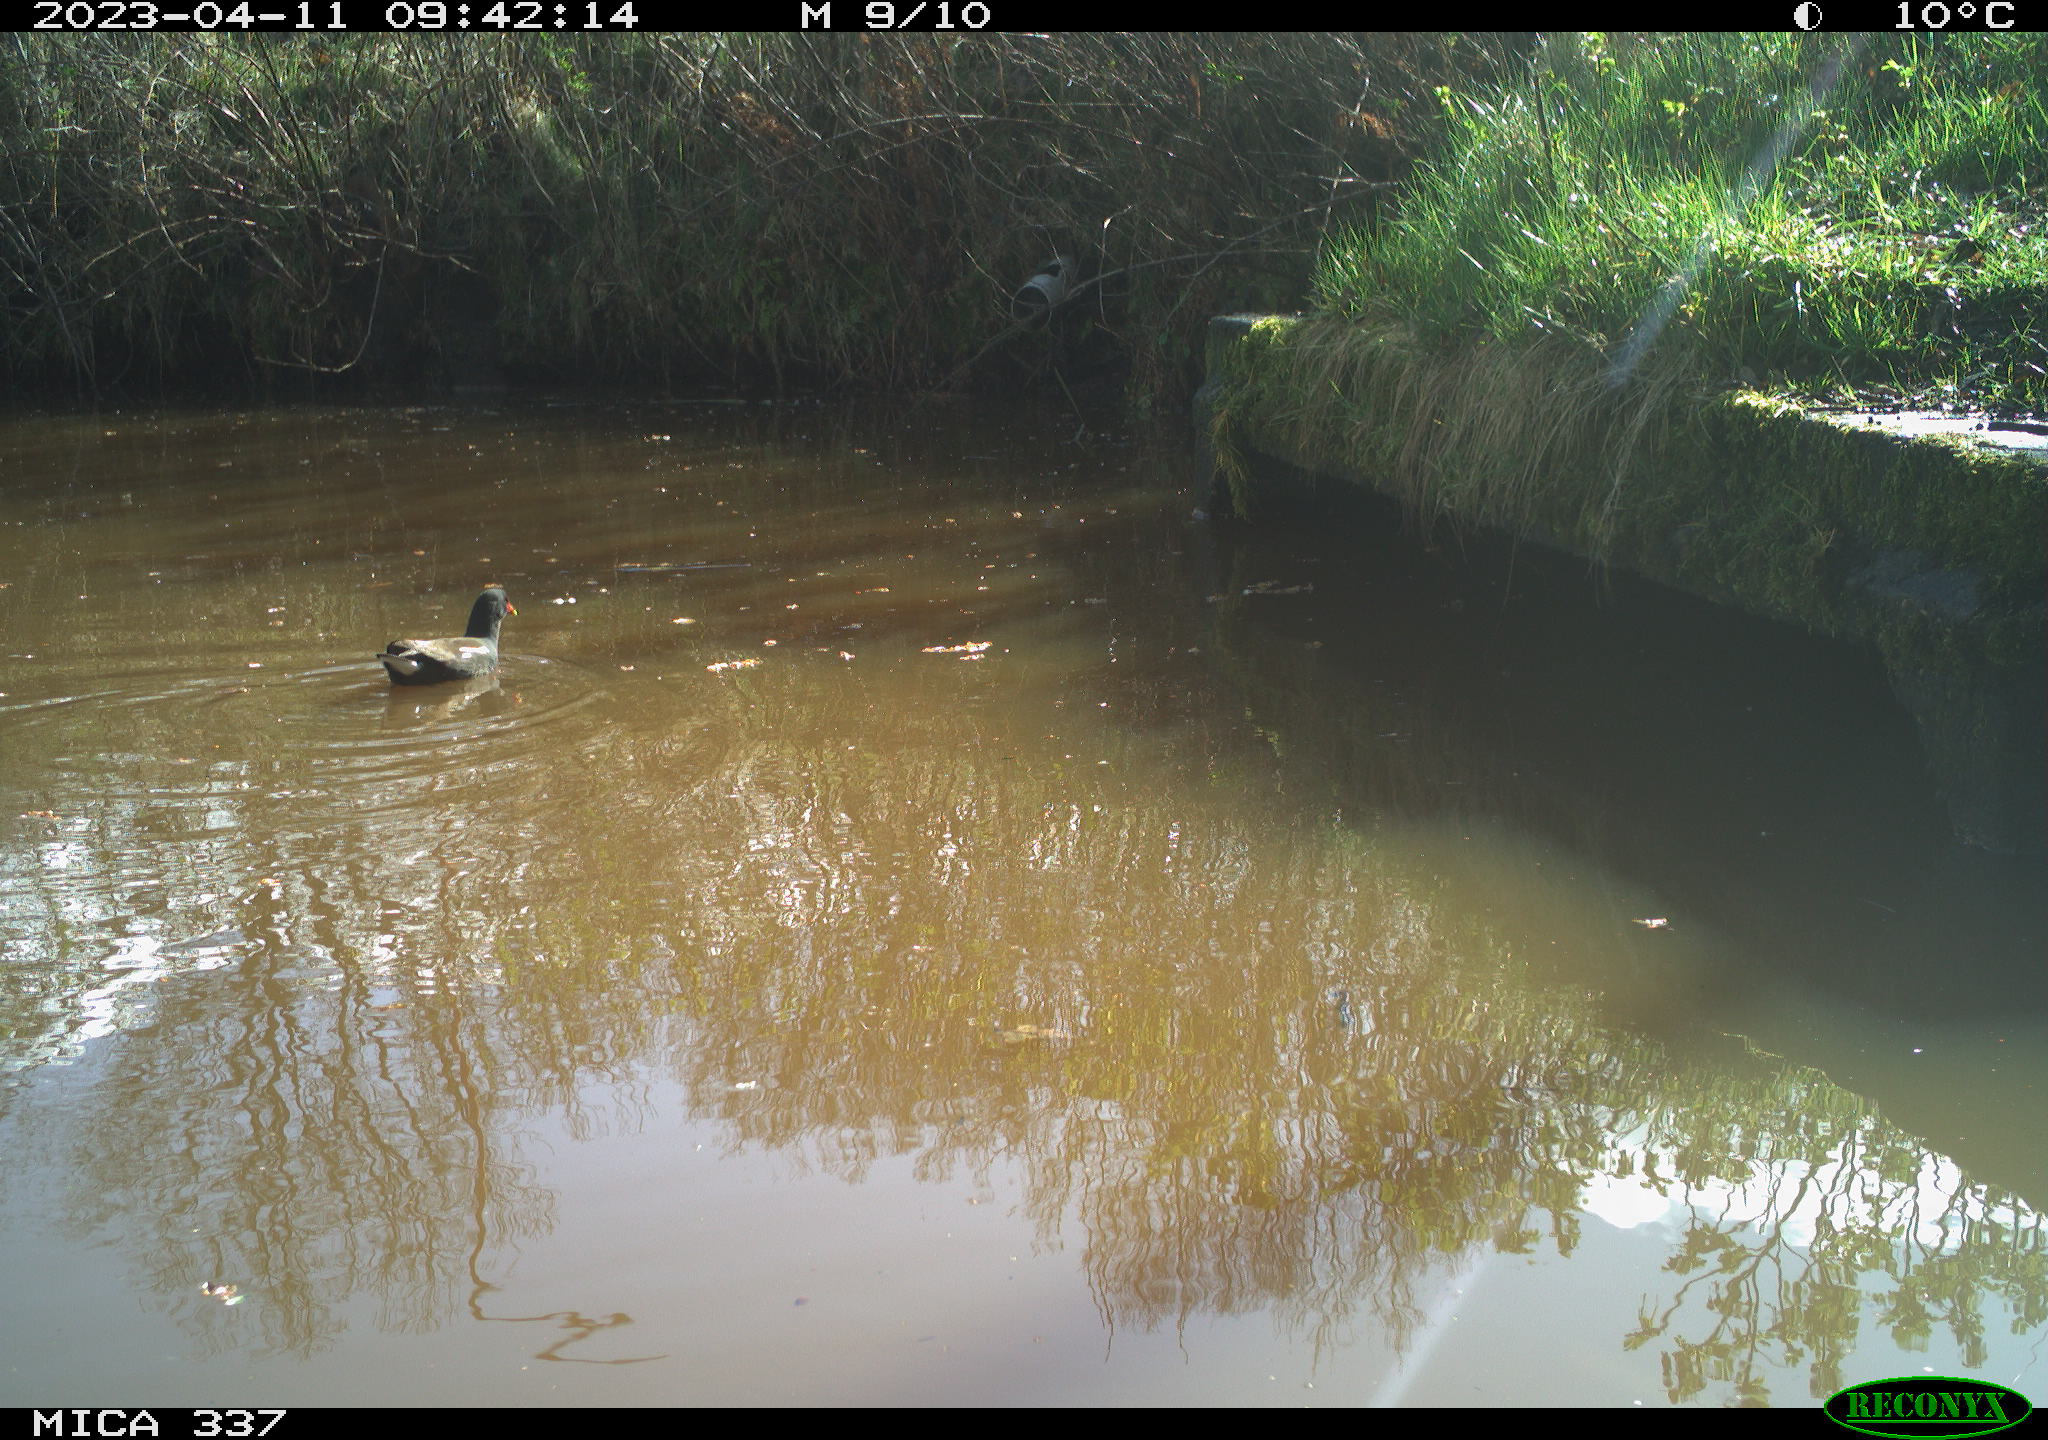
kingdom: Animalia
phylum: Chordata
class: Aves
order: Gruiformes
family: Rallidae
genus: Gallinula
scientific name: Gallinula chloropus
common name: Common moorhen
